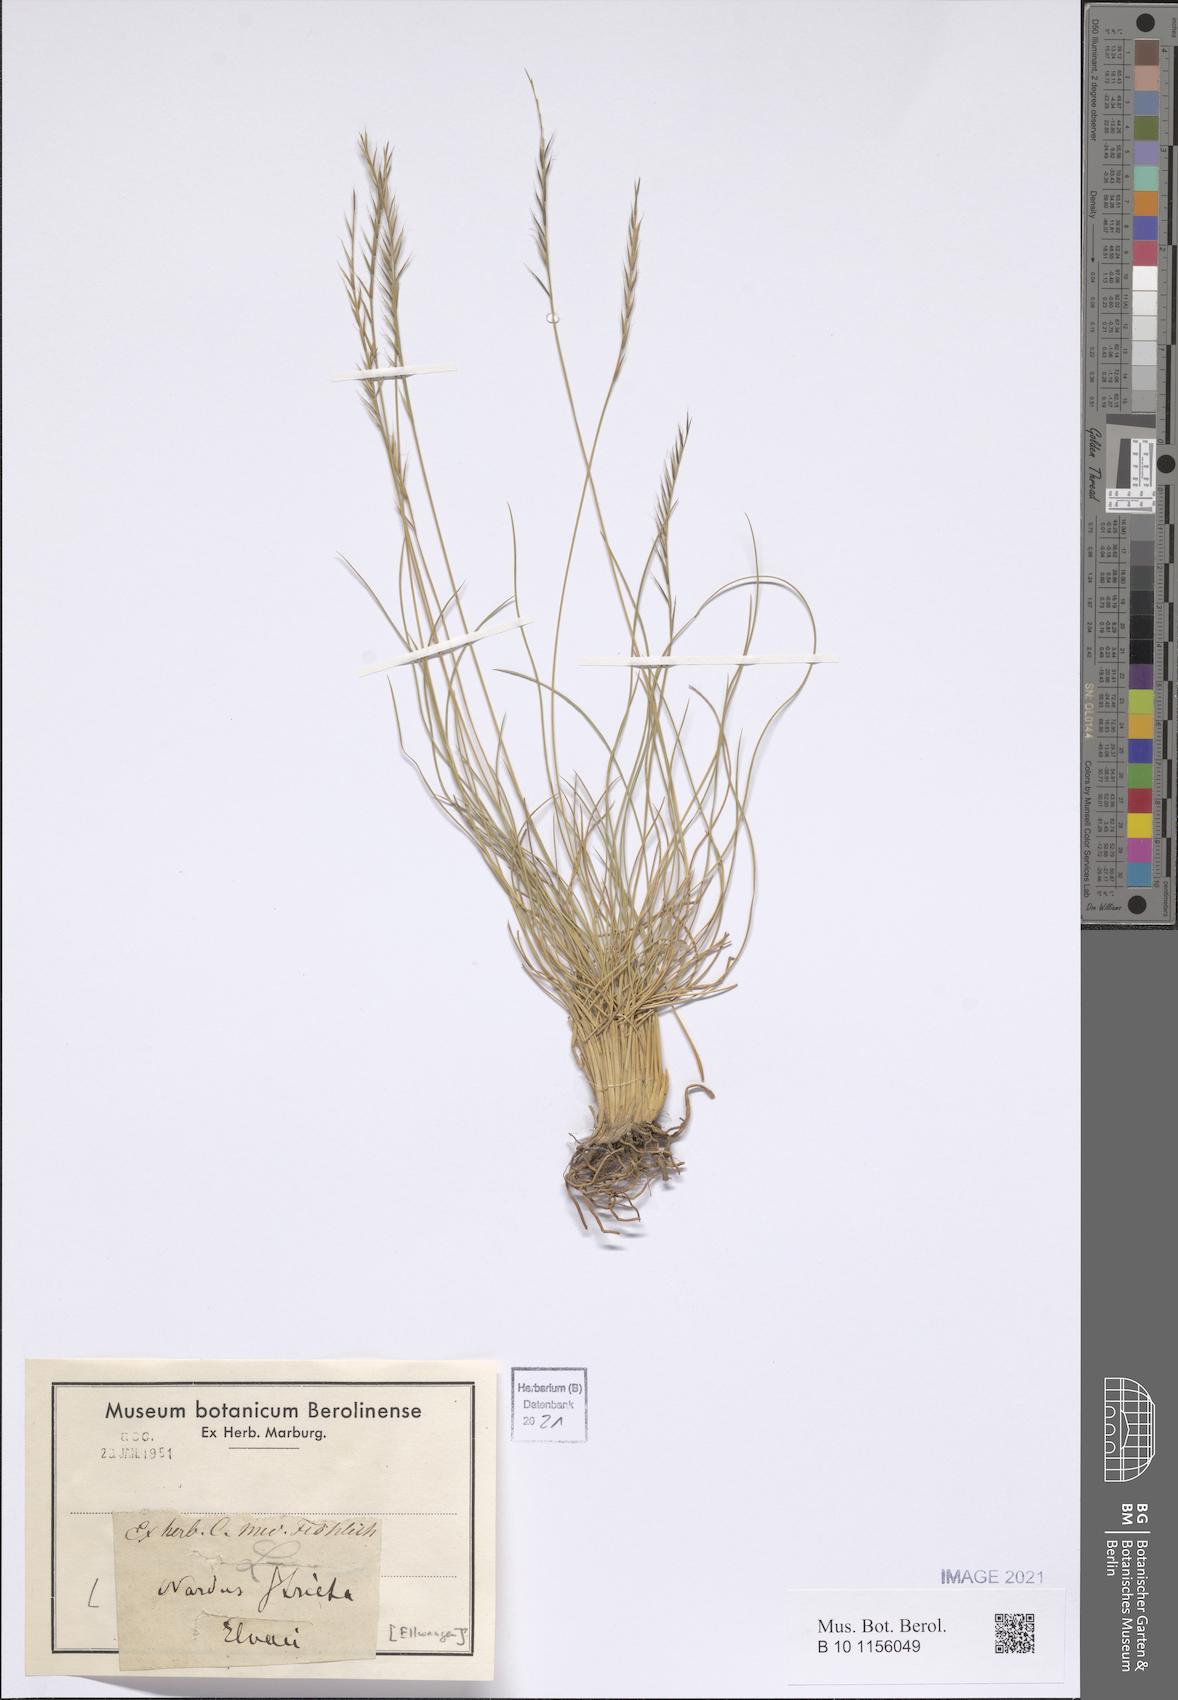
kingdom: Plantae
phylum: Tracheophyta
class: Liliopsida
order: Poales
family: Poaceae
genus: Nardus
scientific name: Nardus stricta
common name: Mat-grass
